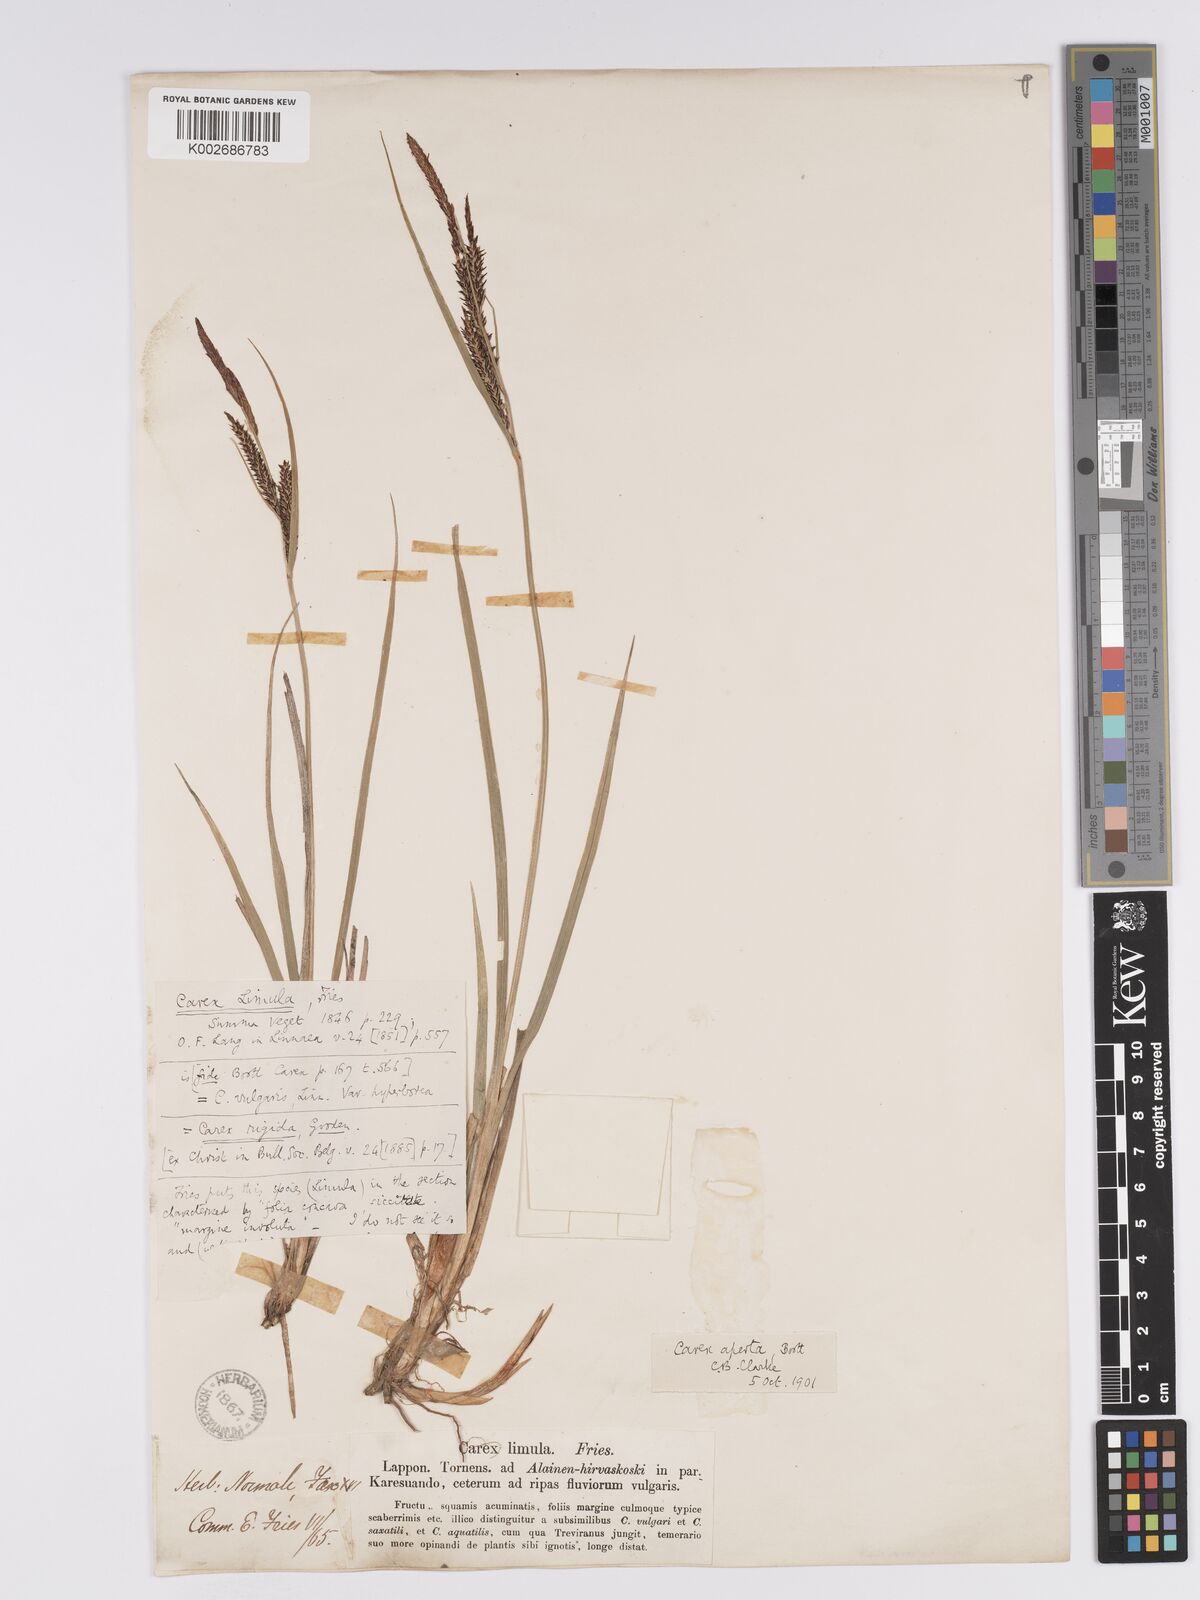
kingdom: Plantae
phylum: Tracheophyta
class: Liliopsida
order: Poales
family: Cyperaceae
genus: Carex
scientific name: Carex aquatilis
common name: Water sedge
